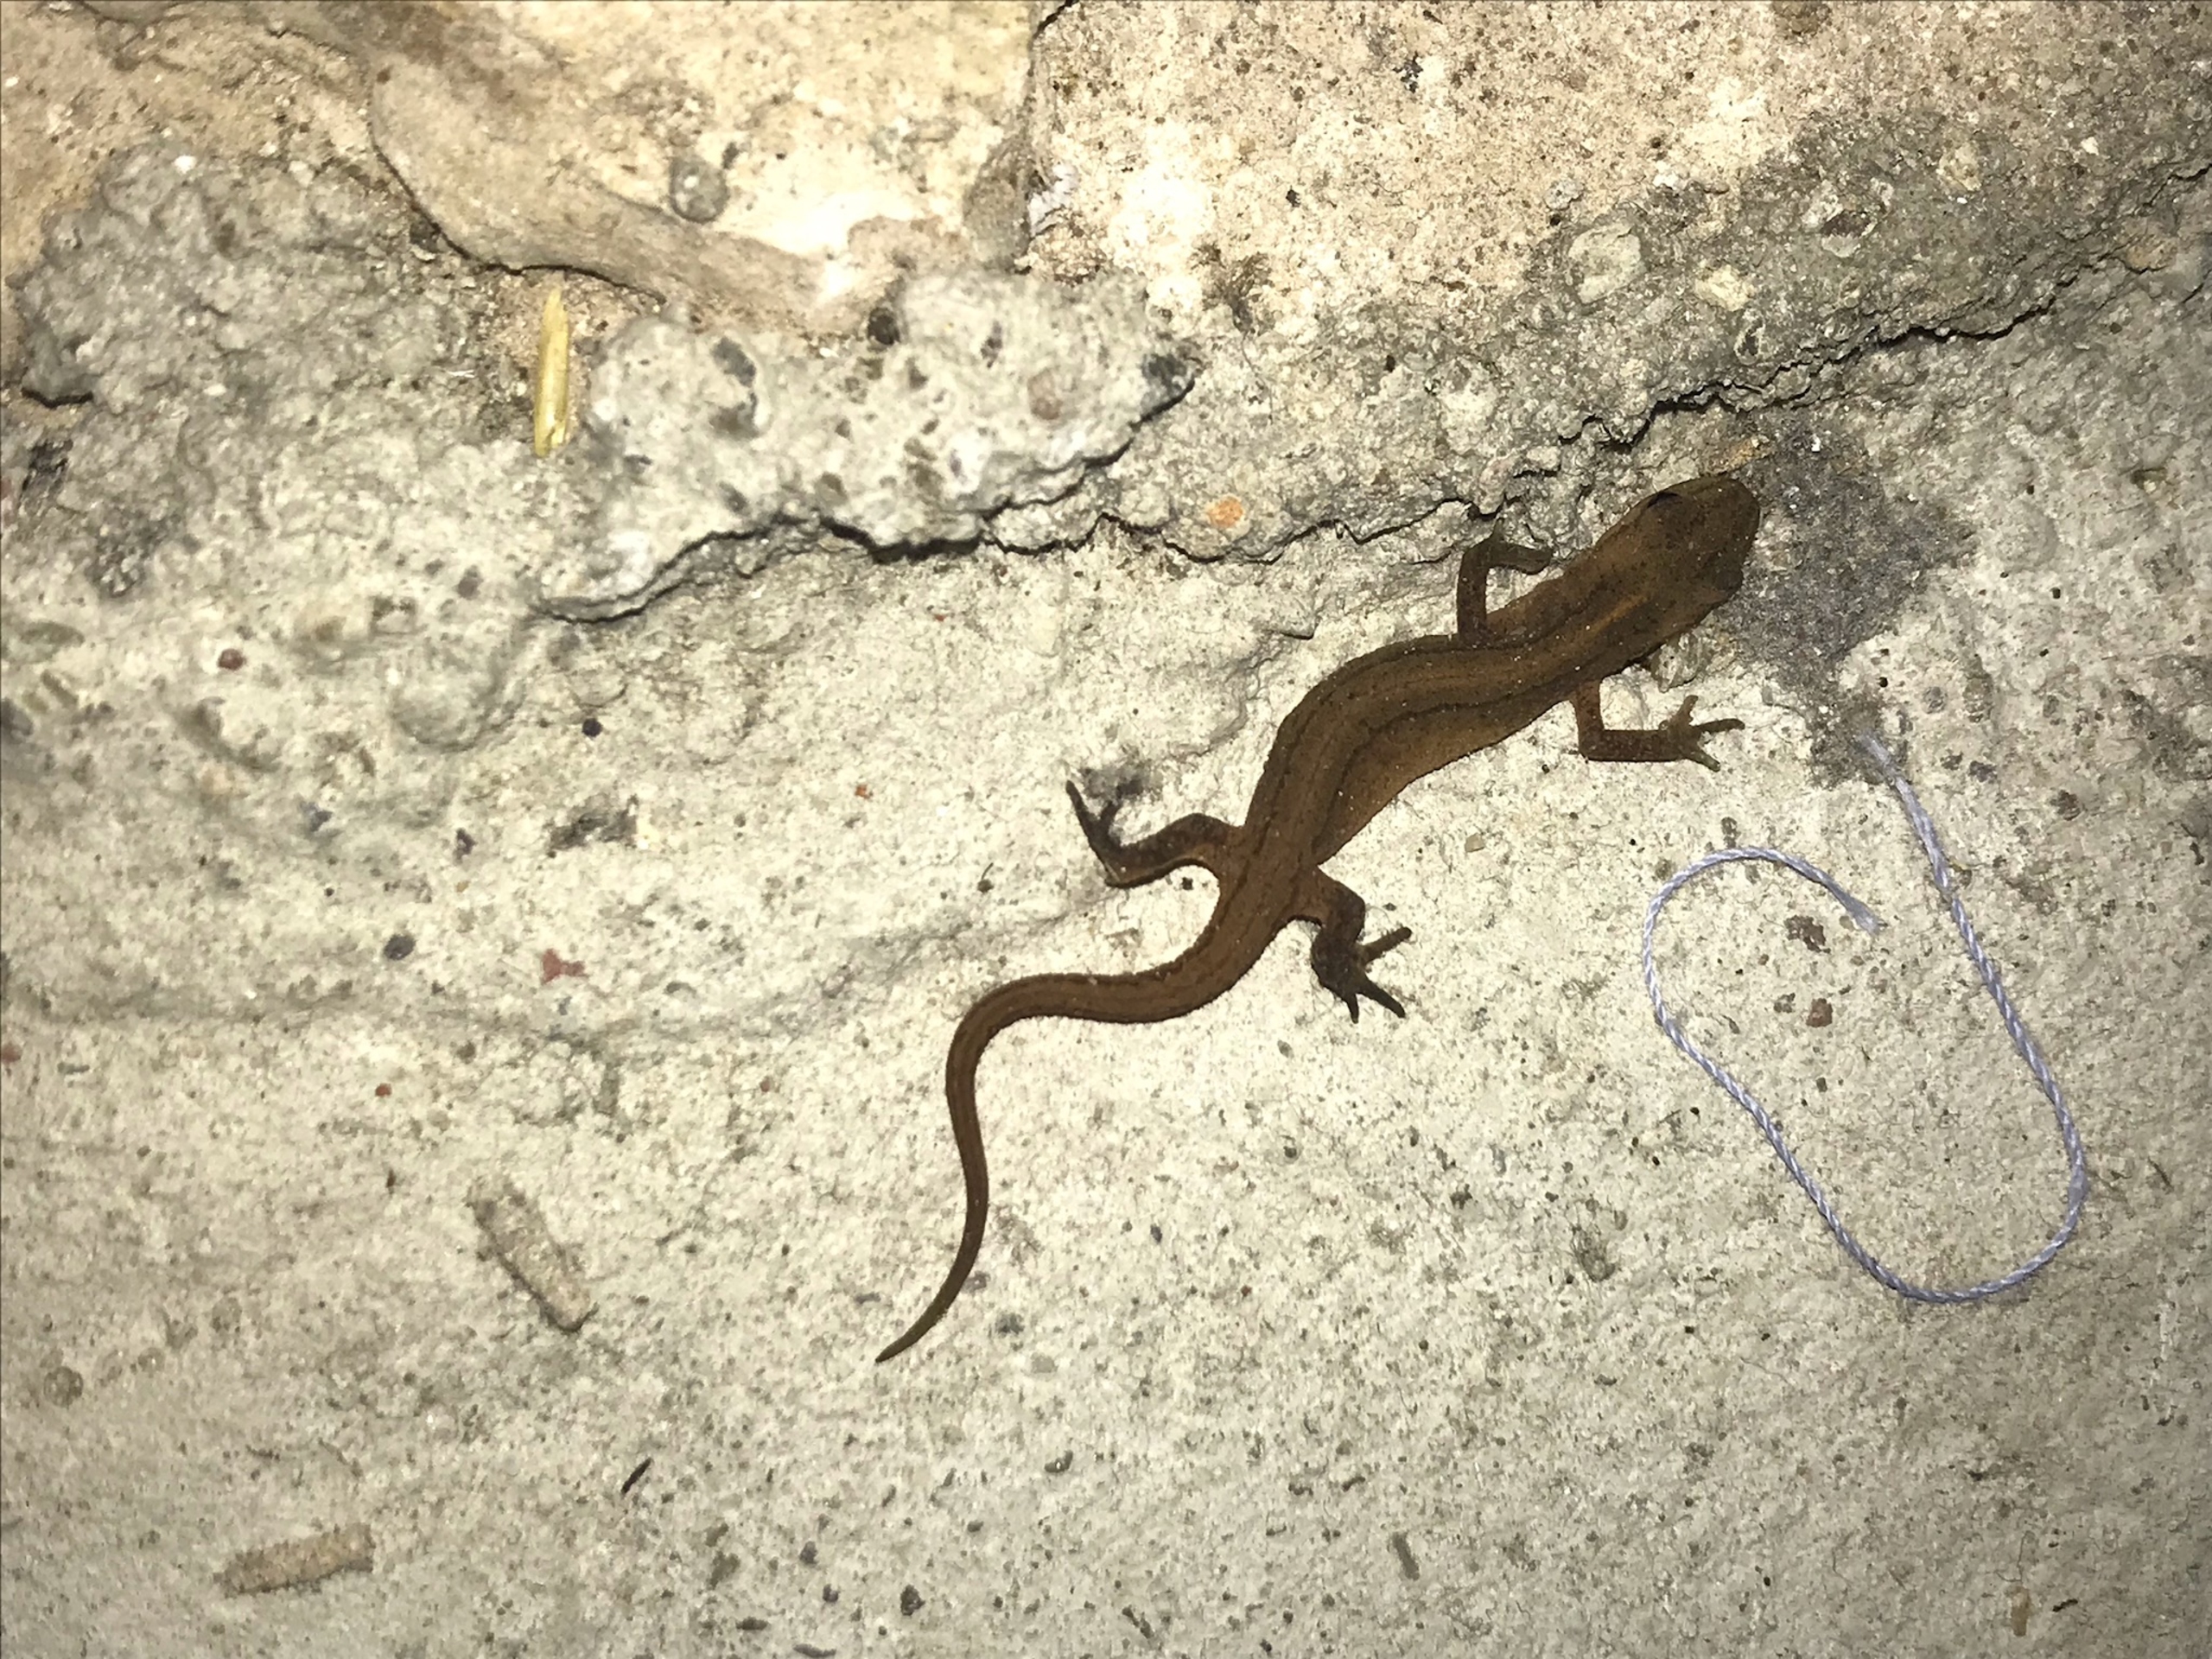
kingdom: Animalia
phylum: Chordata
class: Amphibia
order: Caudata
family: Salamandridae
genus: Lissotriton
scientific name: Lissotriton vulgaris
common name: Lille vandsalamander
